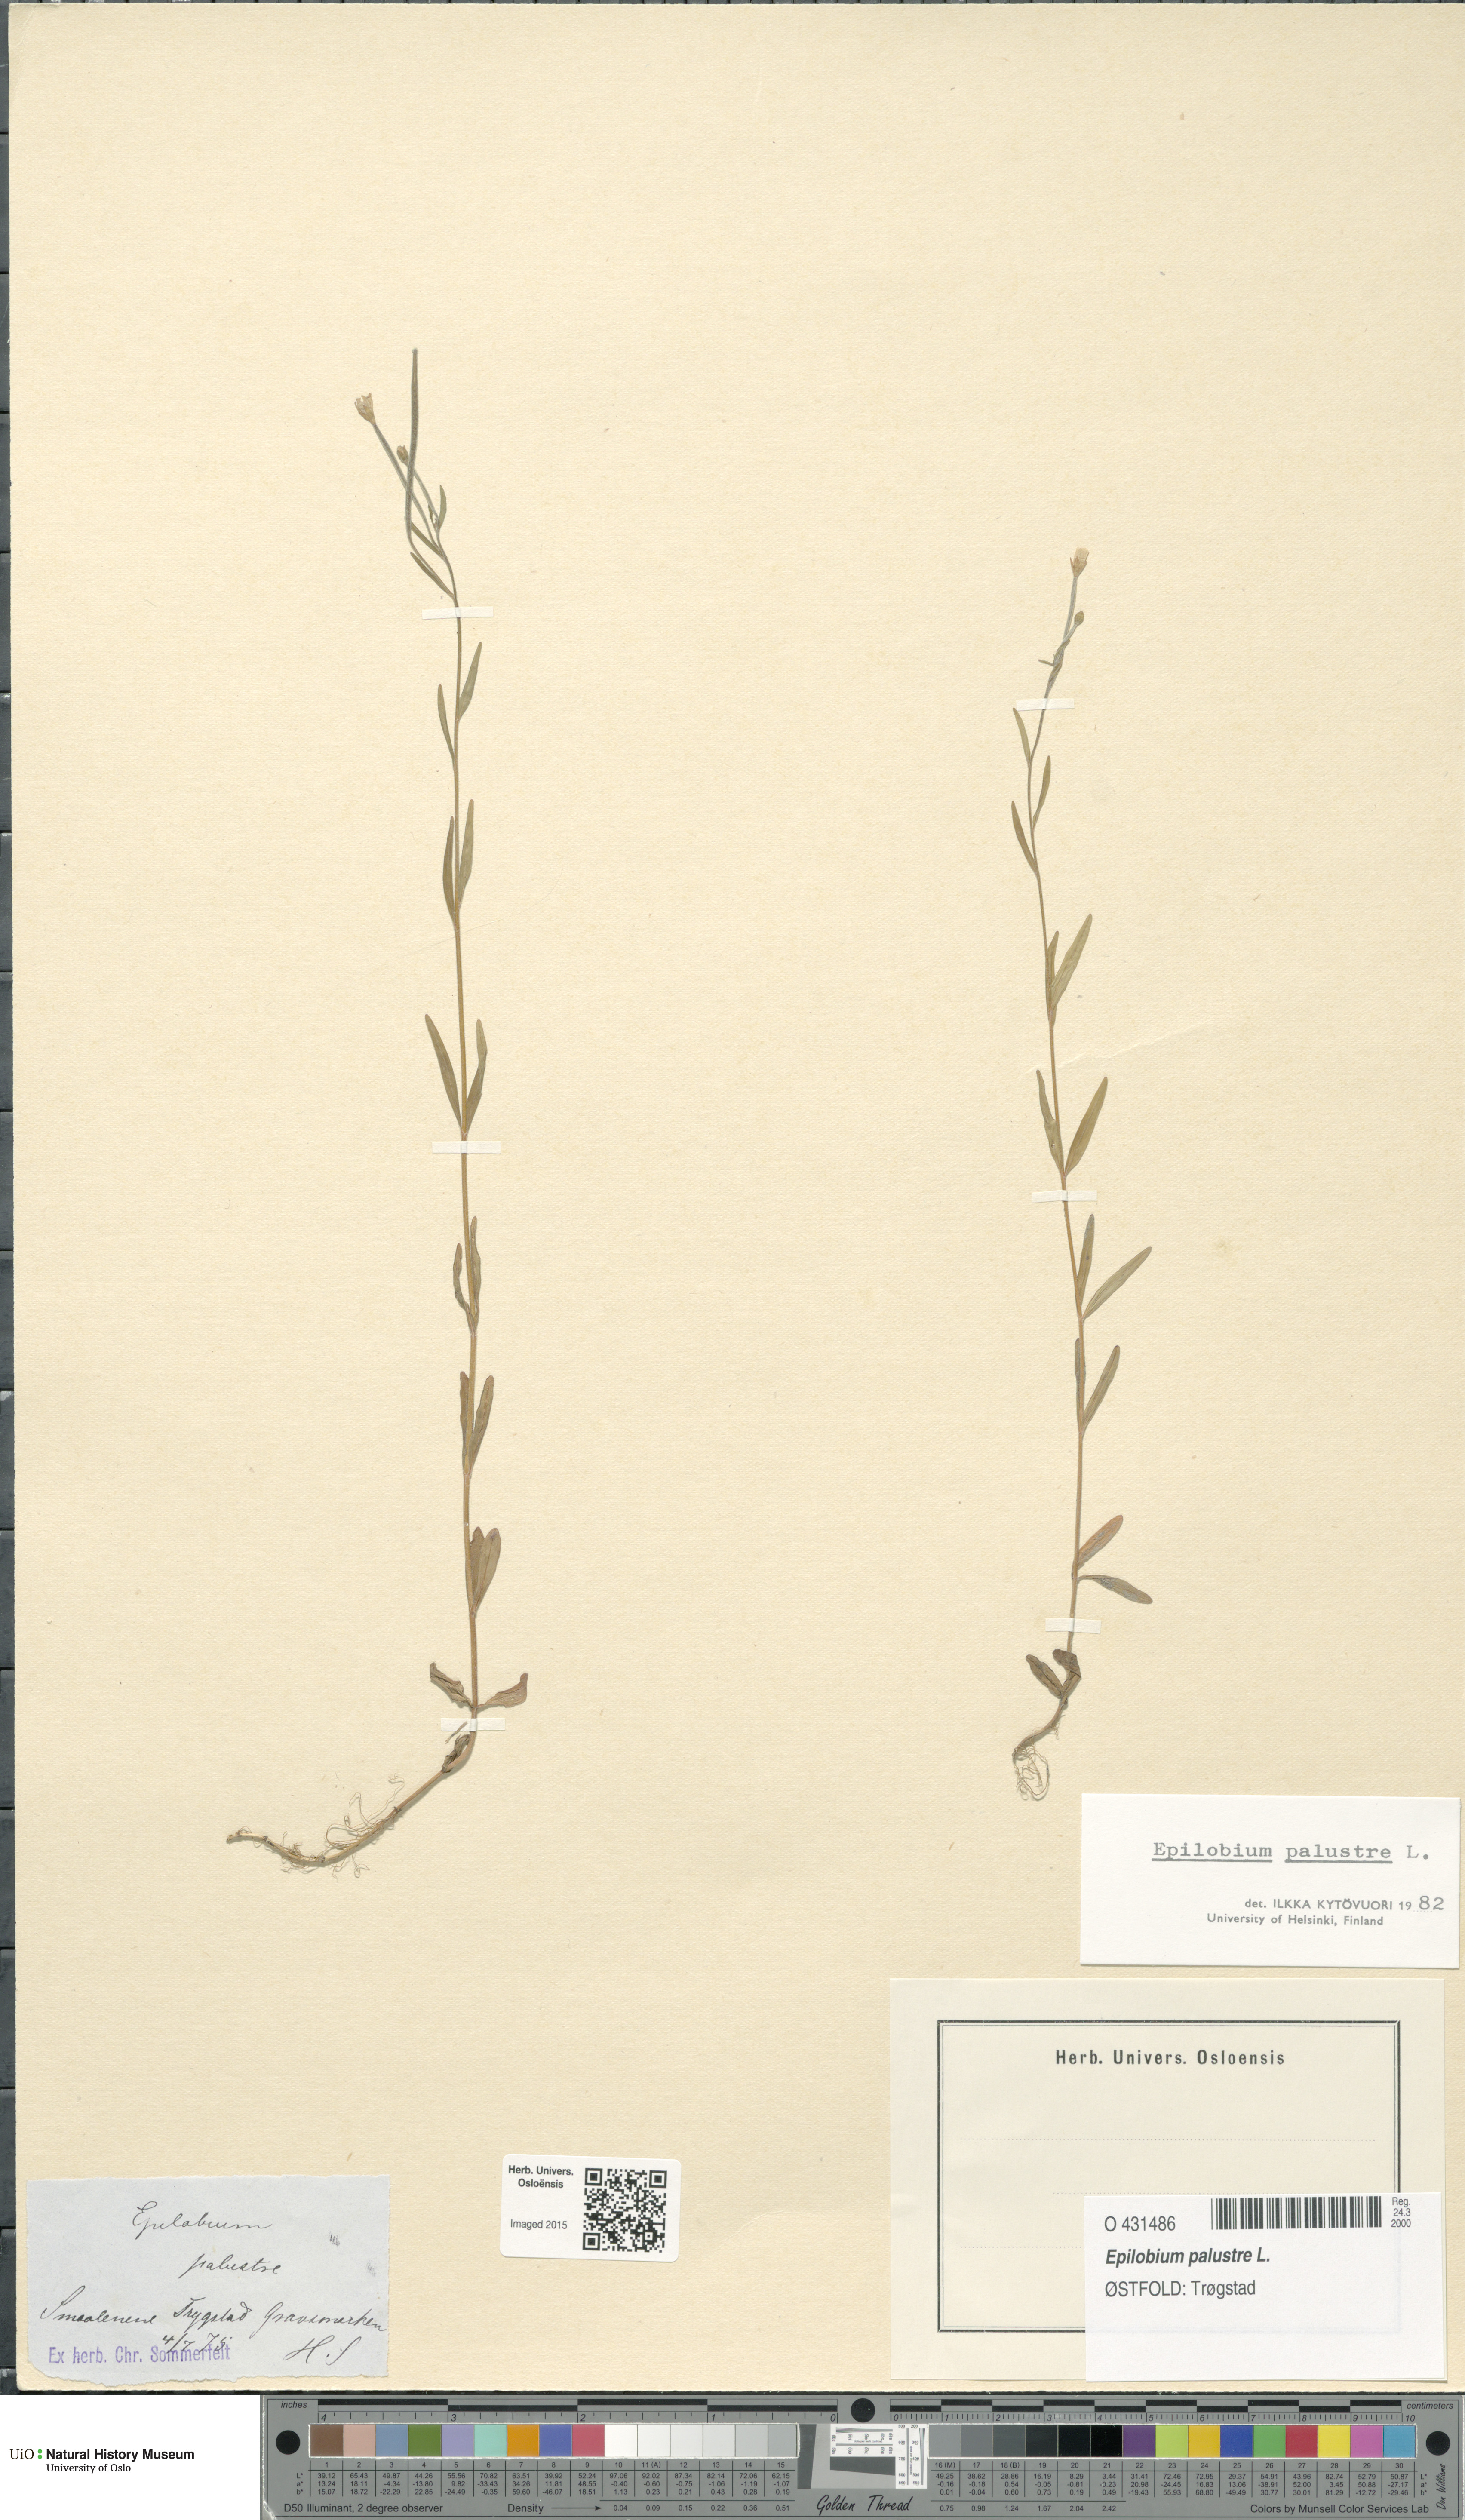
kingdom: Plantae
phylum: Tracheophyta
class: Magnoliopsida
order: Myrtales
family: Onagraceae
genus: Epilobium
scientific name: Epilobium palustre
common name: Marsh willowherb
